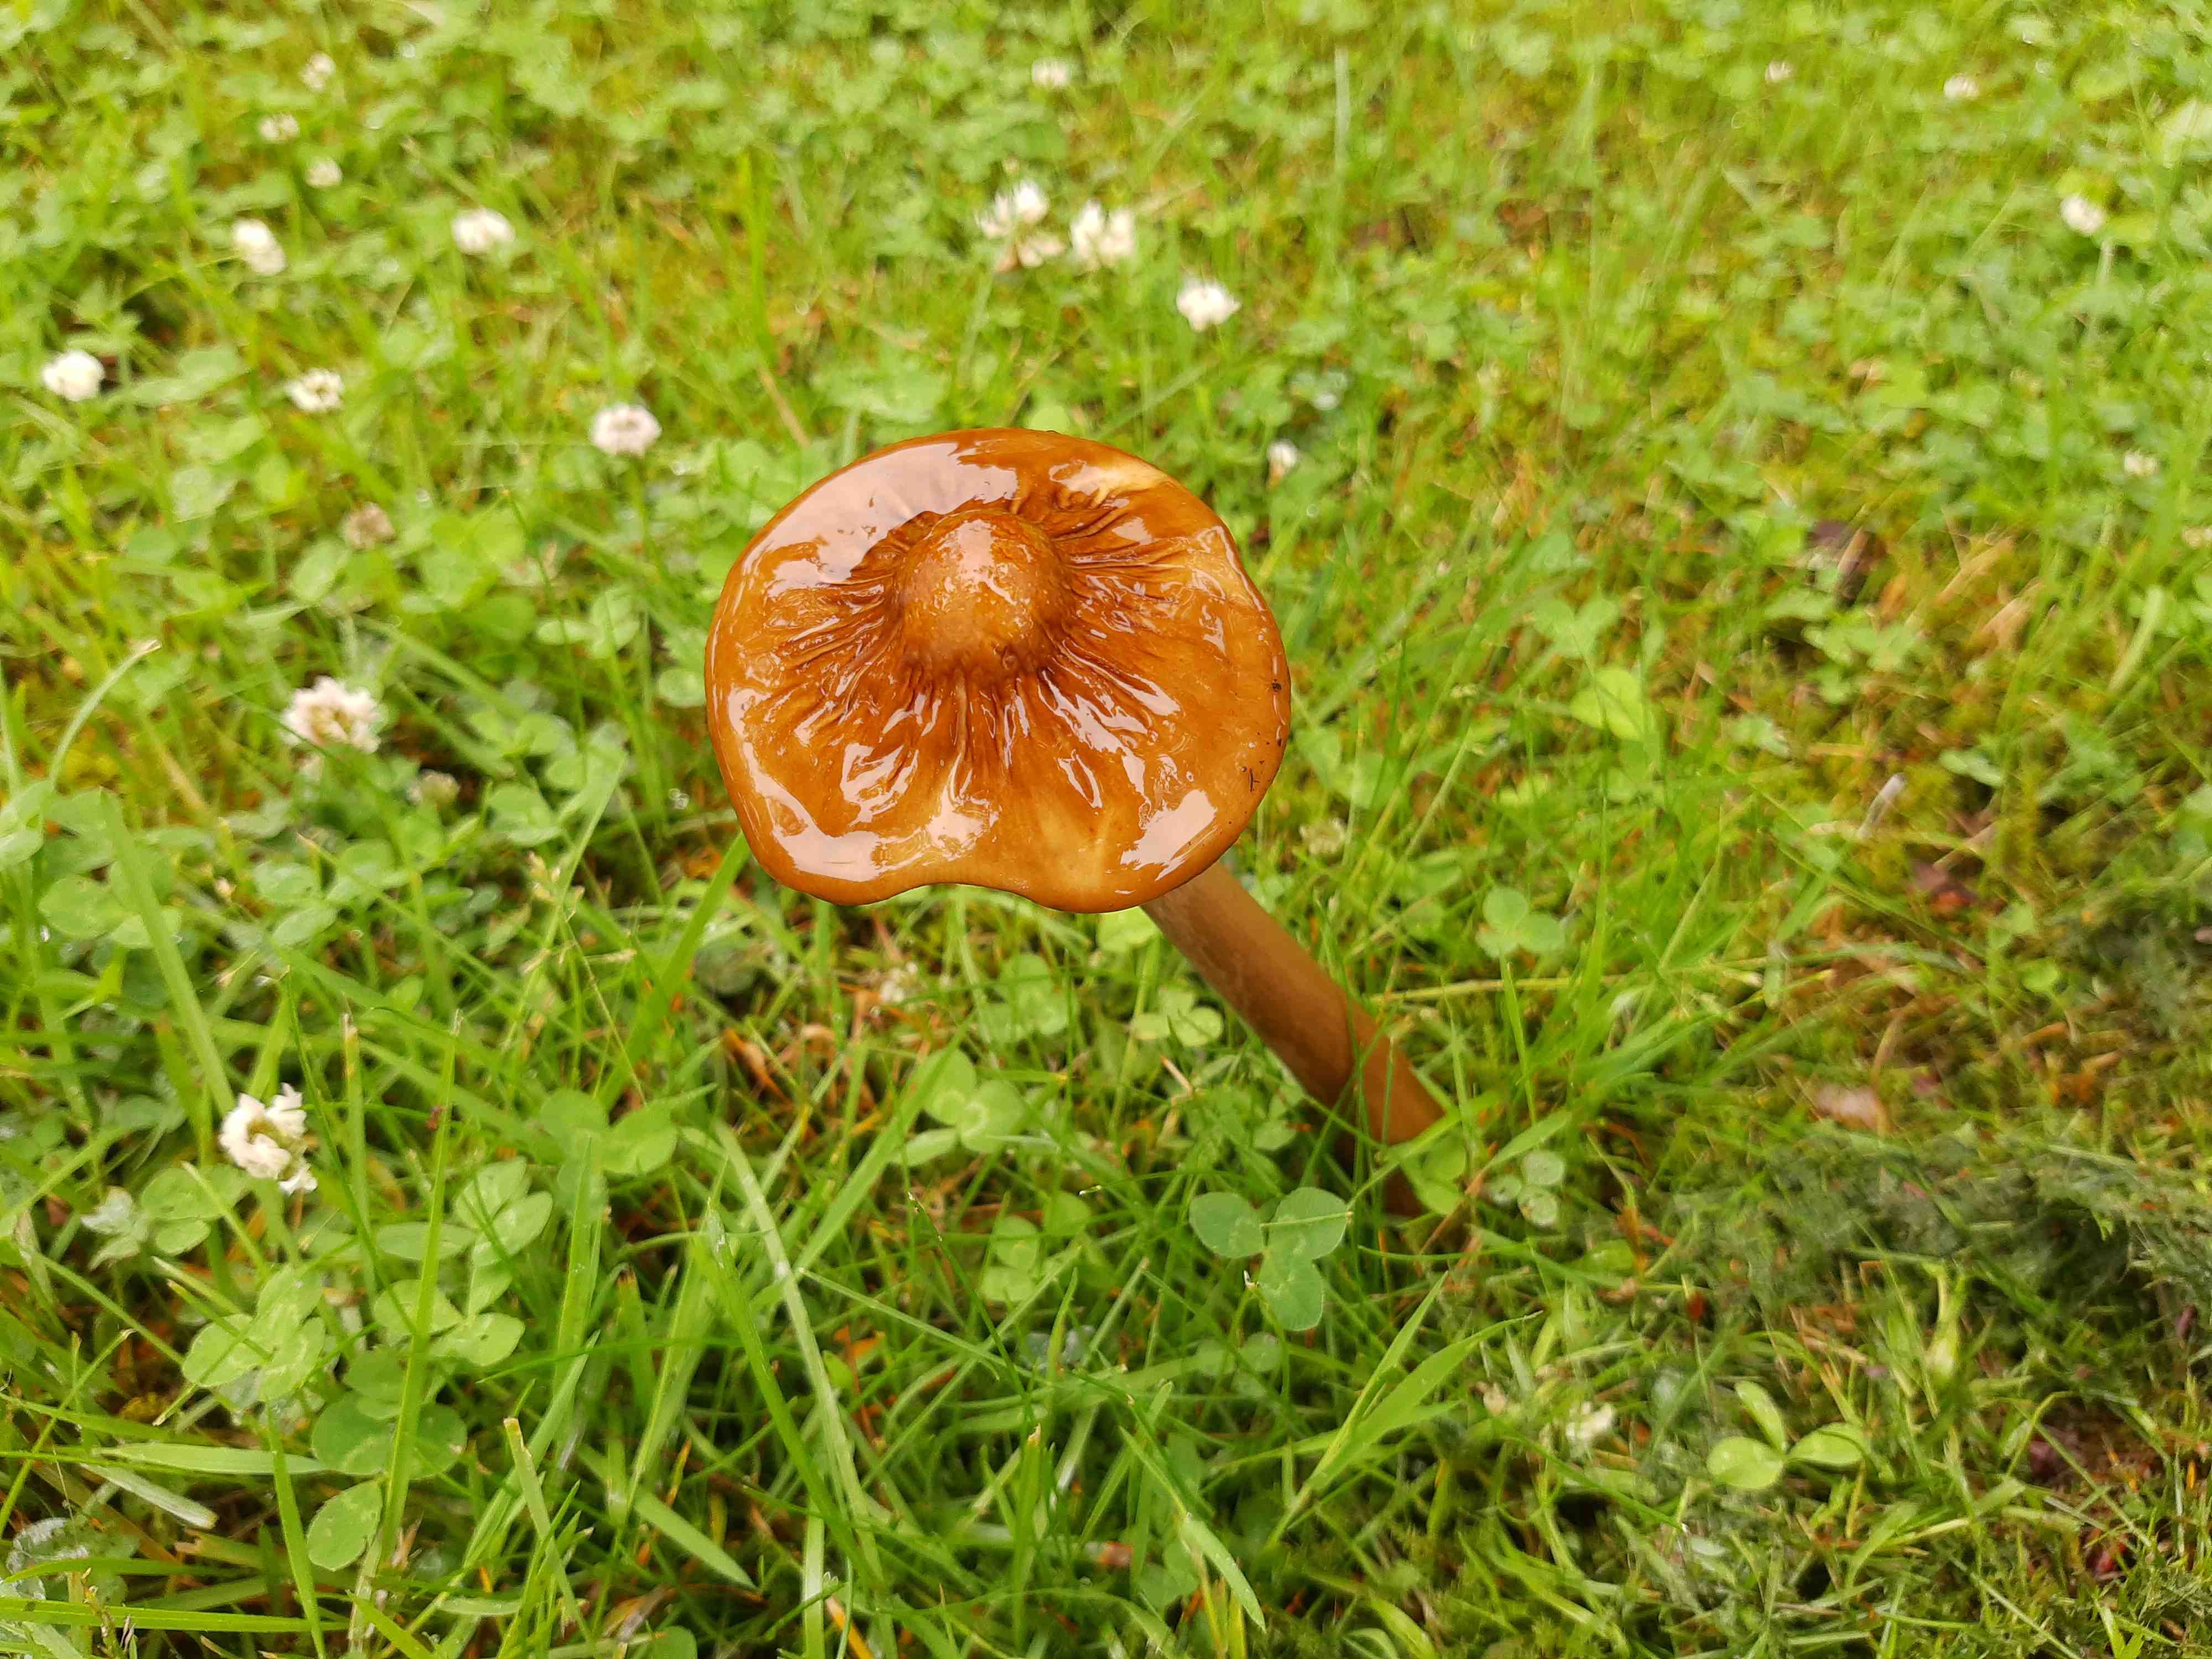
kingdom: Fungi
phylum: Basidiomycota
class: Agaricomycetes
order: Agaricales
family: Physalacriaceae
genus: Hymenopellis
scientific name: Hymenopellis radicata
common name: almindelig pælerodshat
